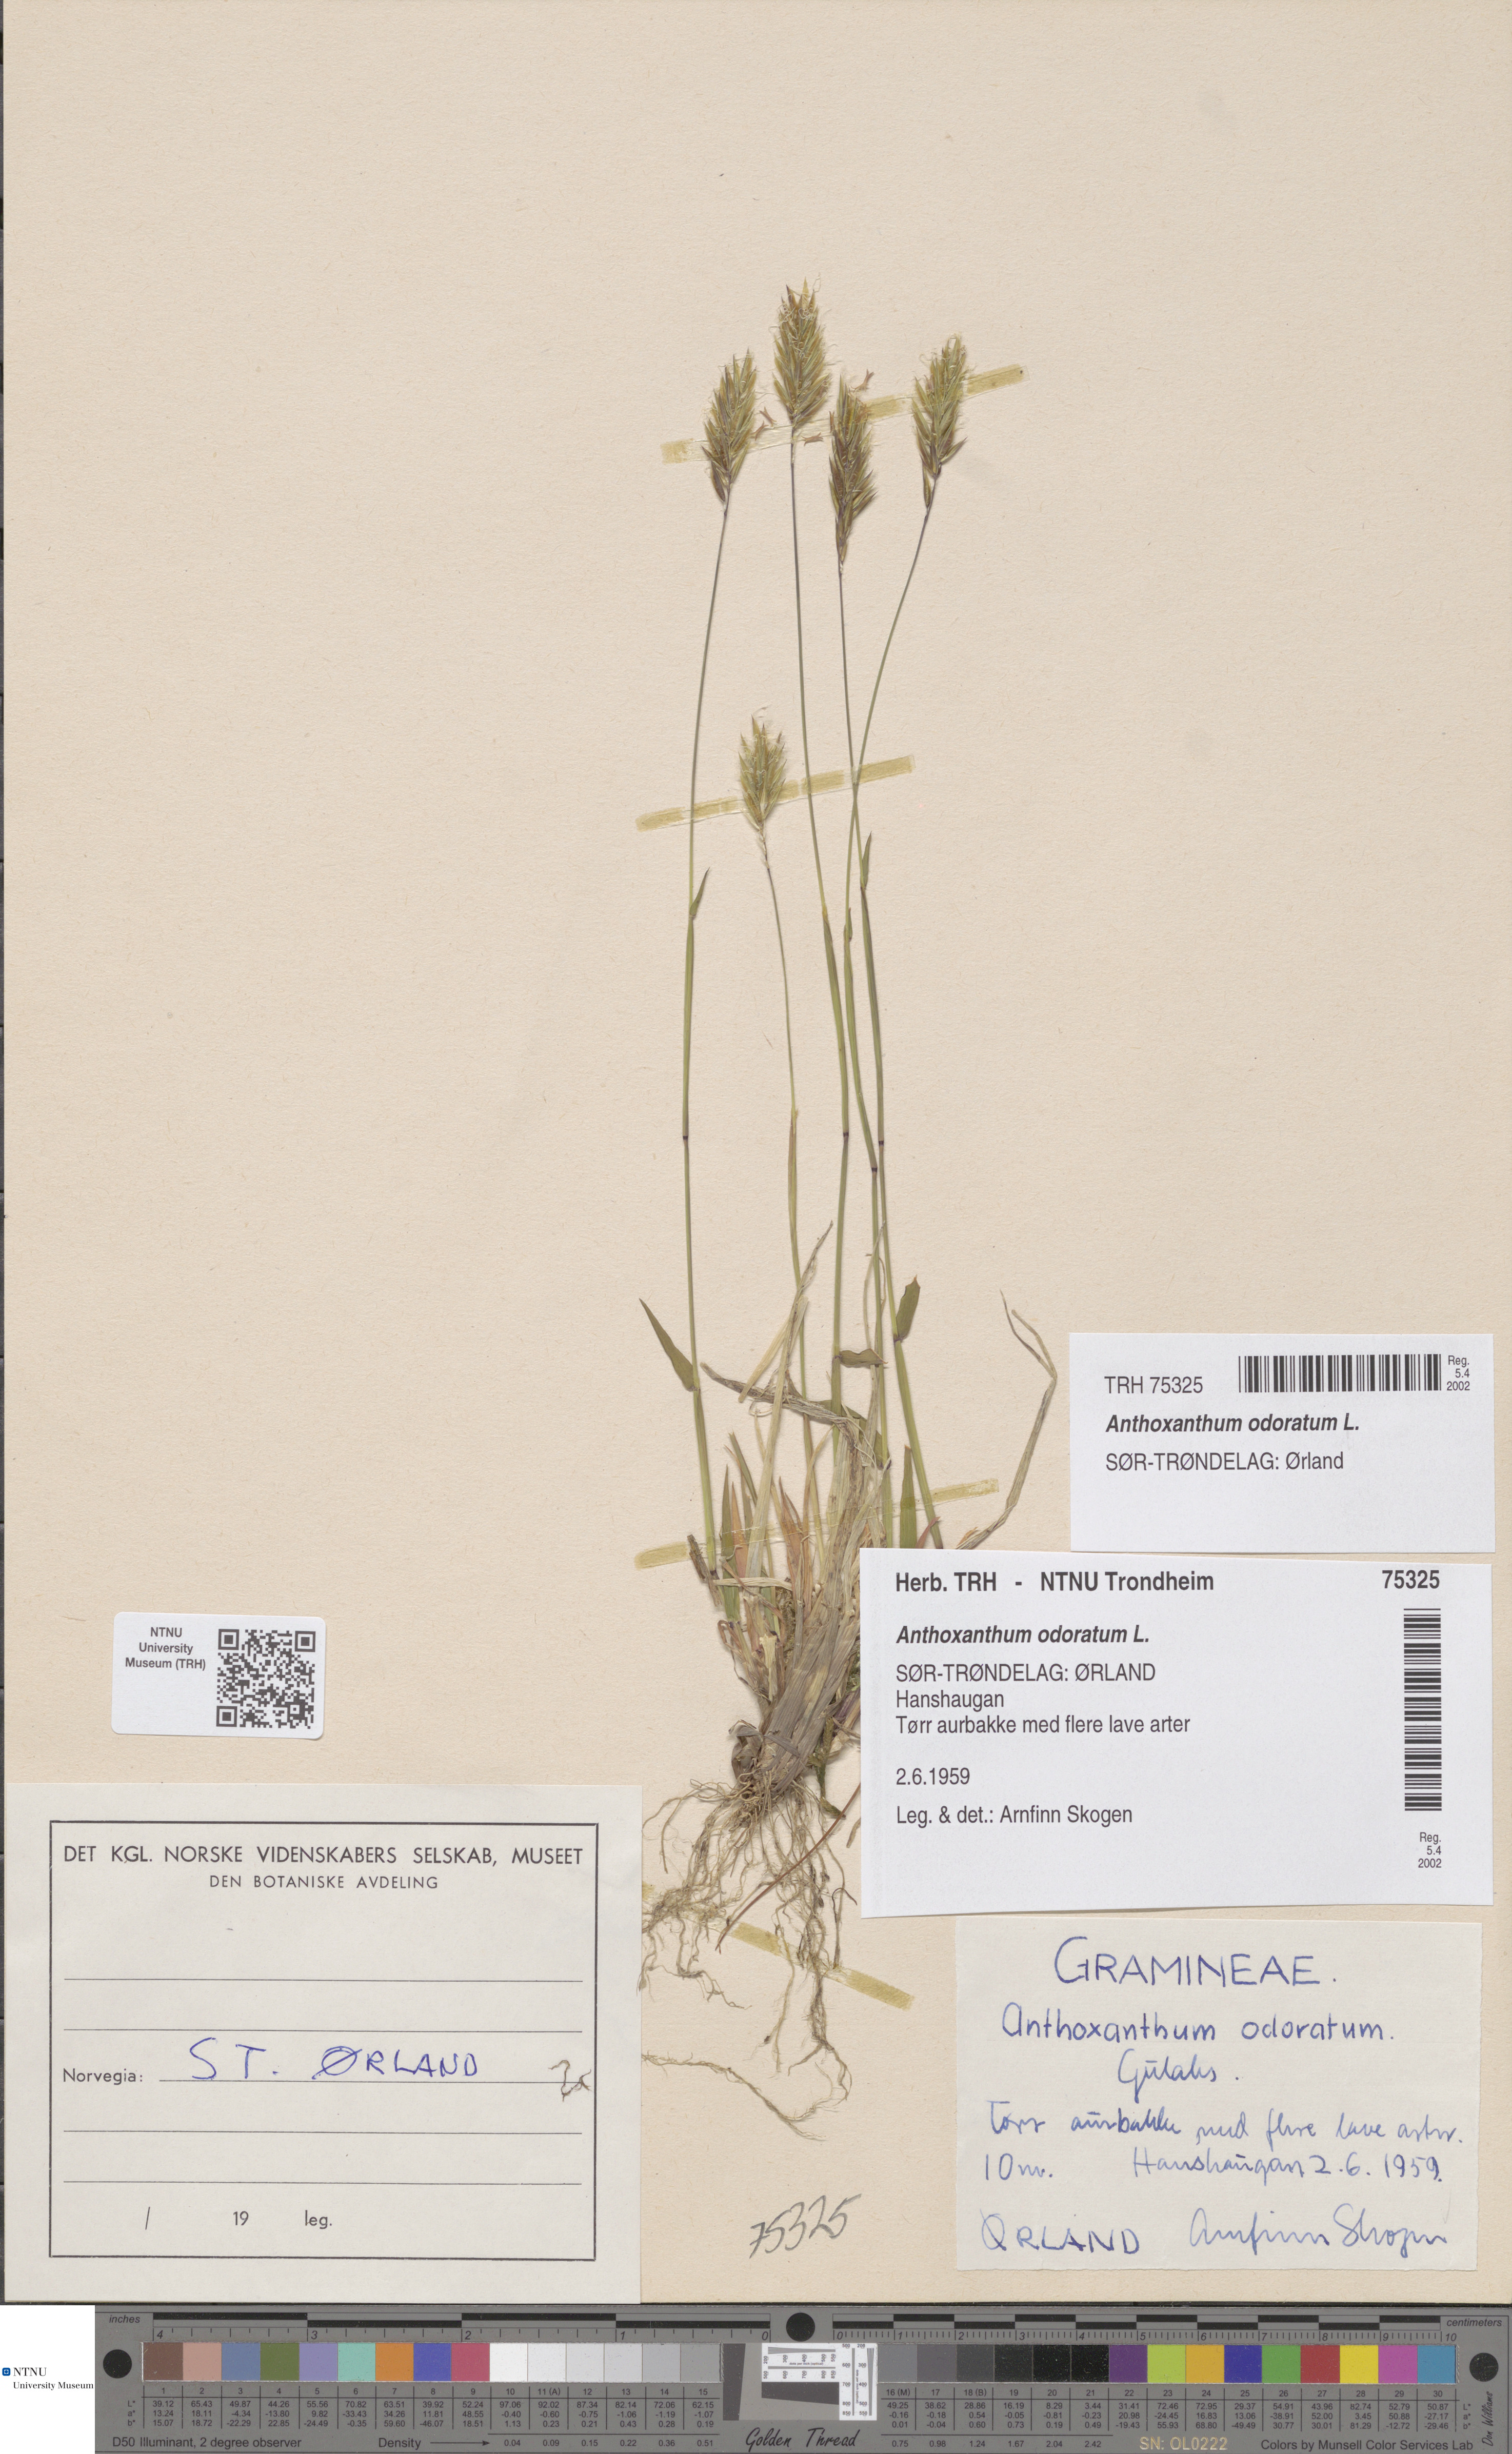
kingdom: Plantae
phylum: Tracheophyta
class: Liliopsida
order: Poales
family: Poaceae
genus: Anthoxanthum
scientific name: Anthoxanthum odoratum
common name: Sweet vernalgrass
